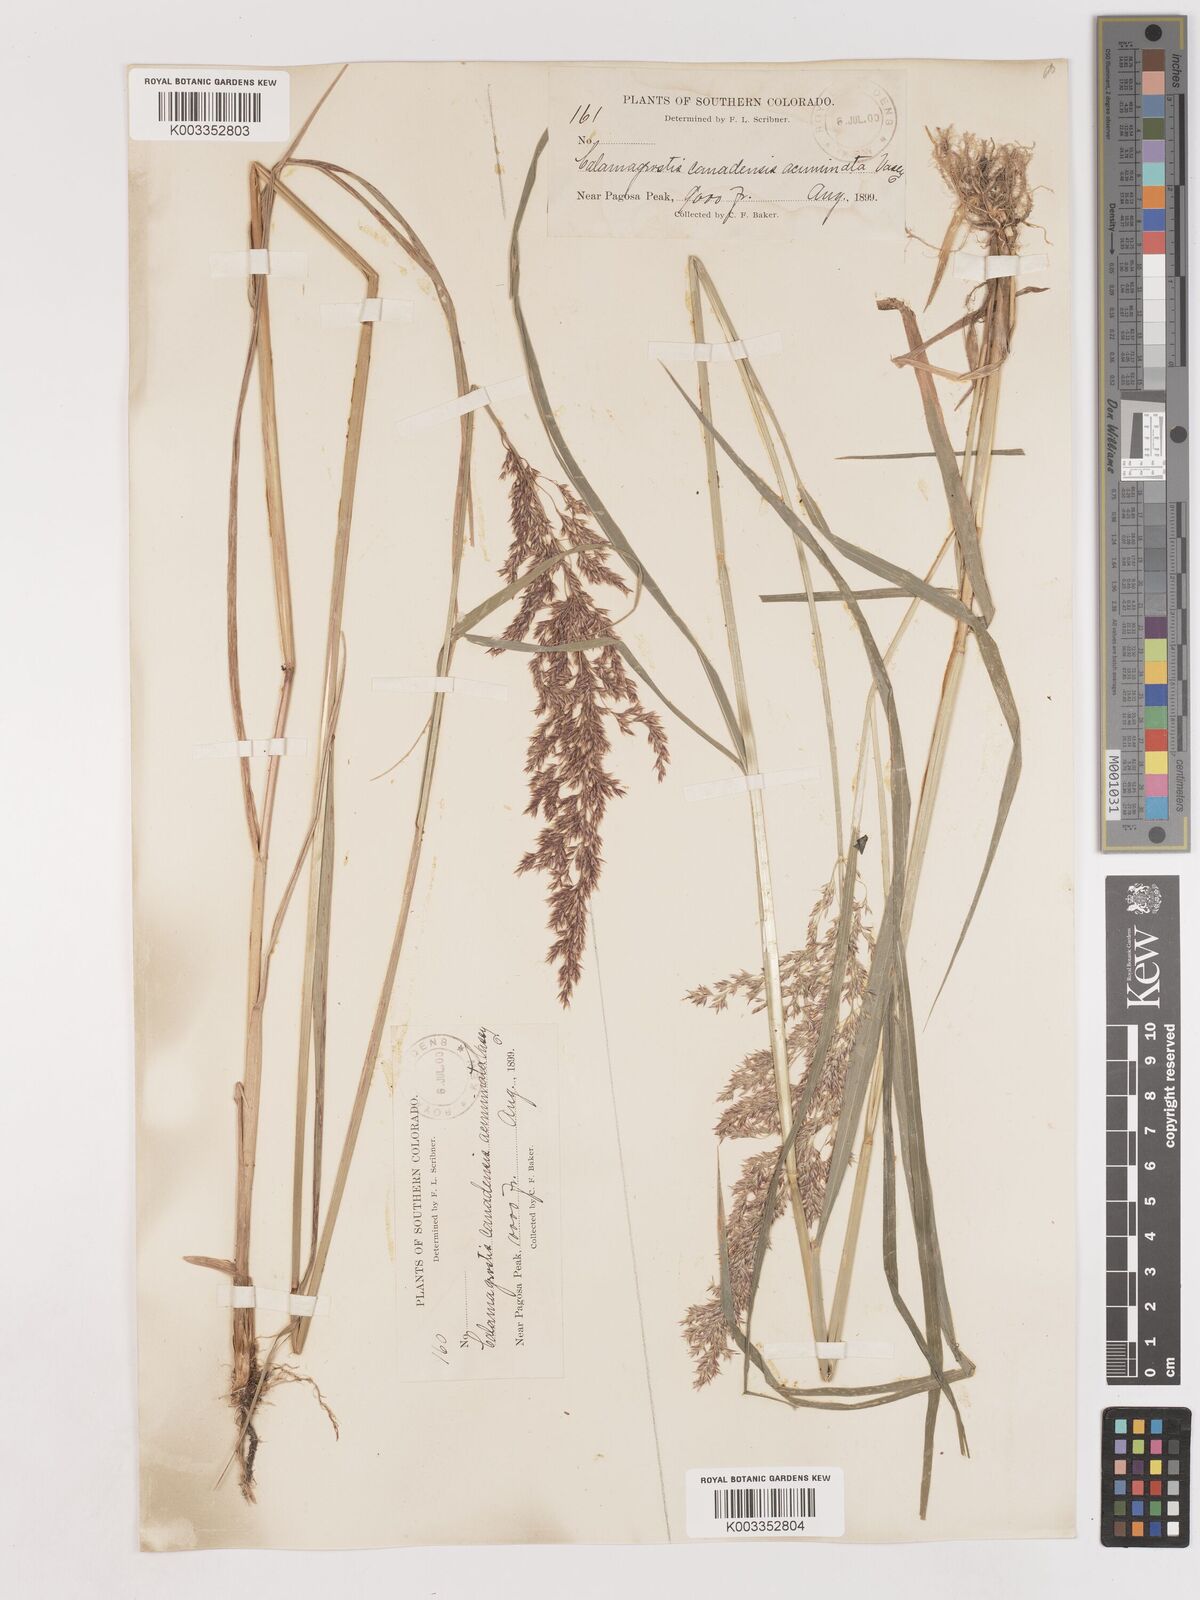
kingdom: Plantae
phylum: Tracheophyta
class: Liliopsida
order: Poales
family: Poaceae
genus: Calamagrostis
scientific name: Calamagrostis canadensis
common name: Canada bluejoint
